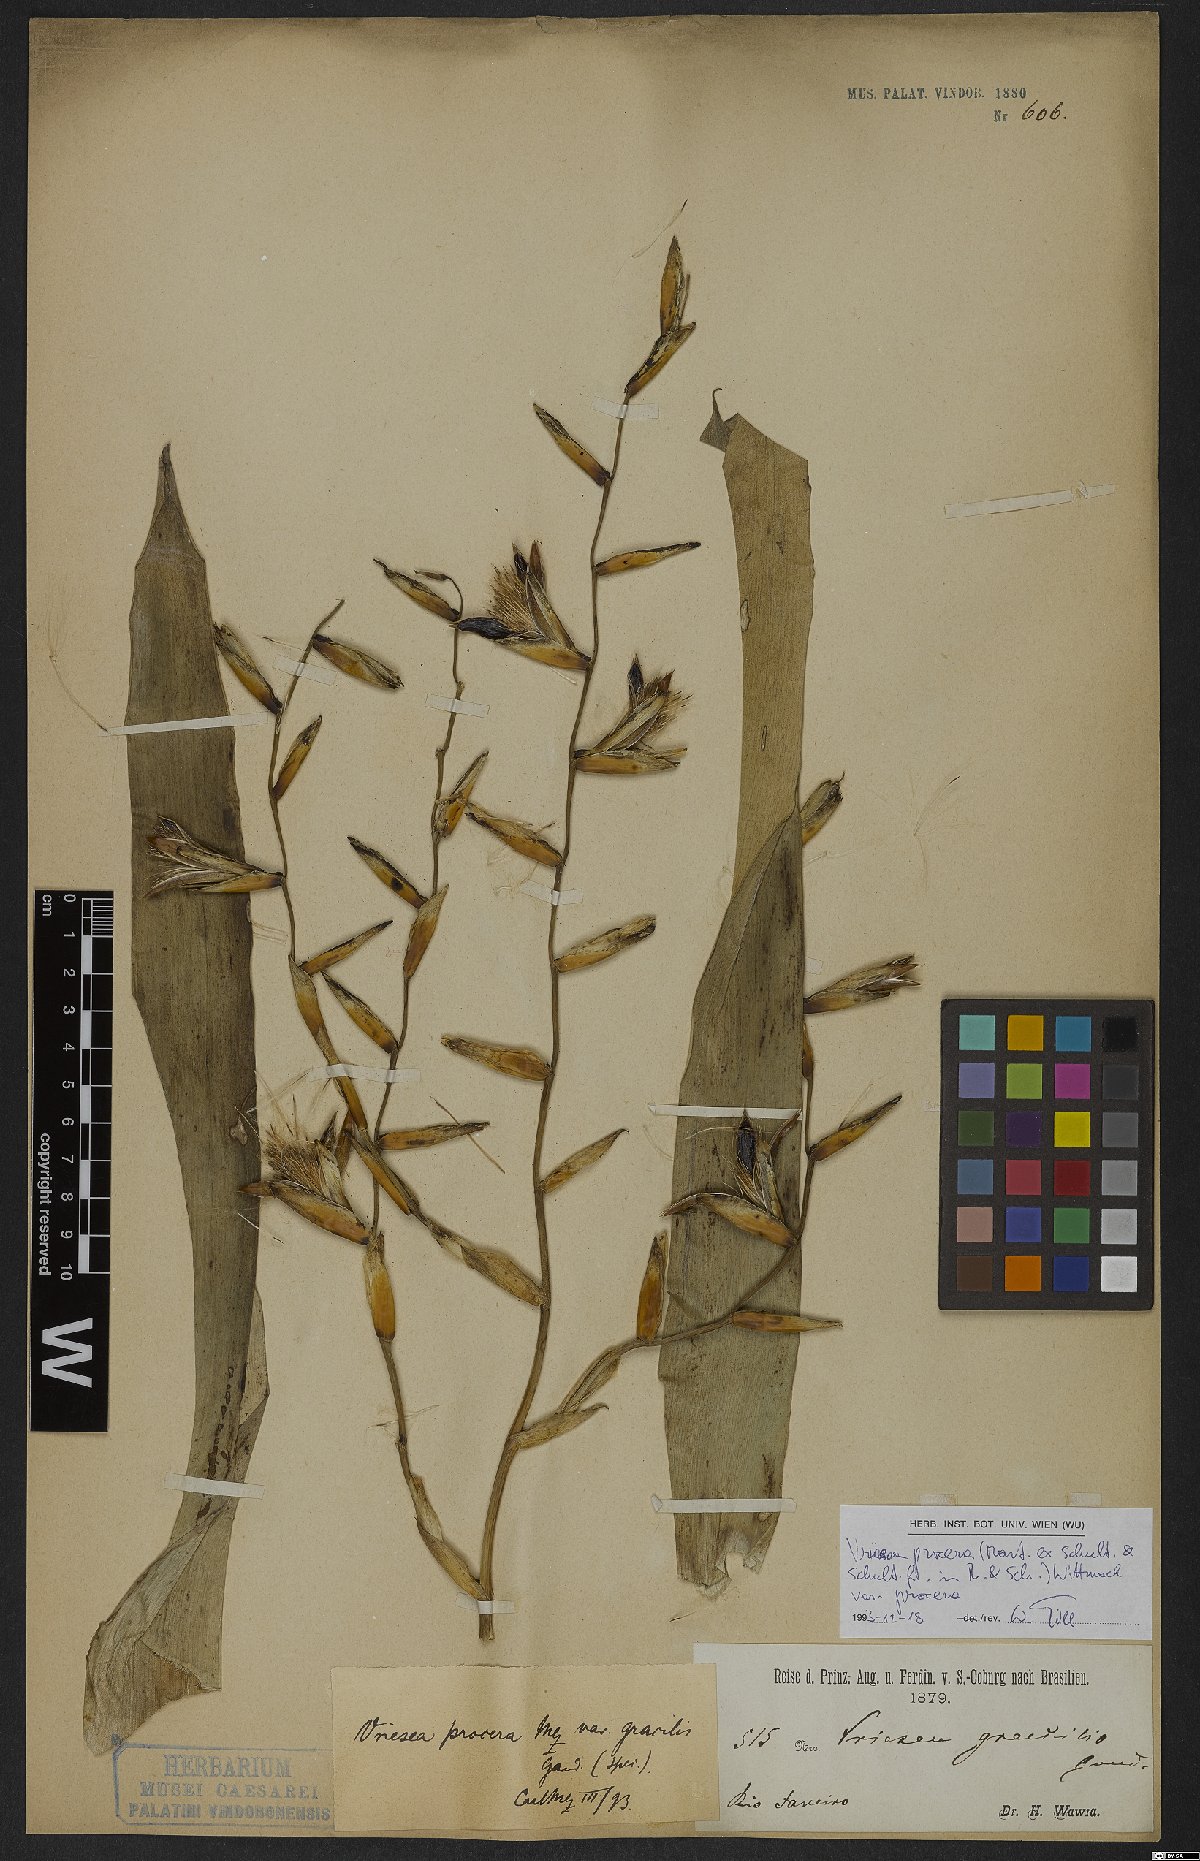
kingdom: Plantae
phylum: Tracheophyta
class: Liliopsida
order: Poales
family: Bromeliaceae
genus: Vriesea
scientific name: Vriesea procera
